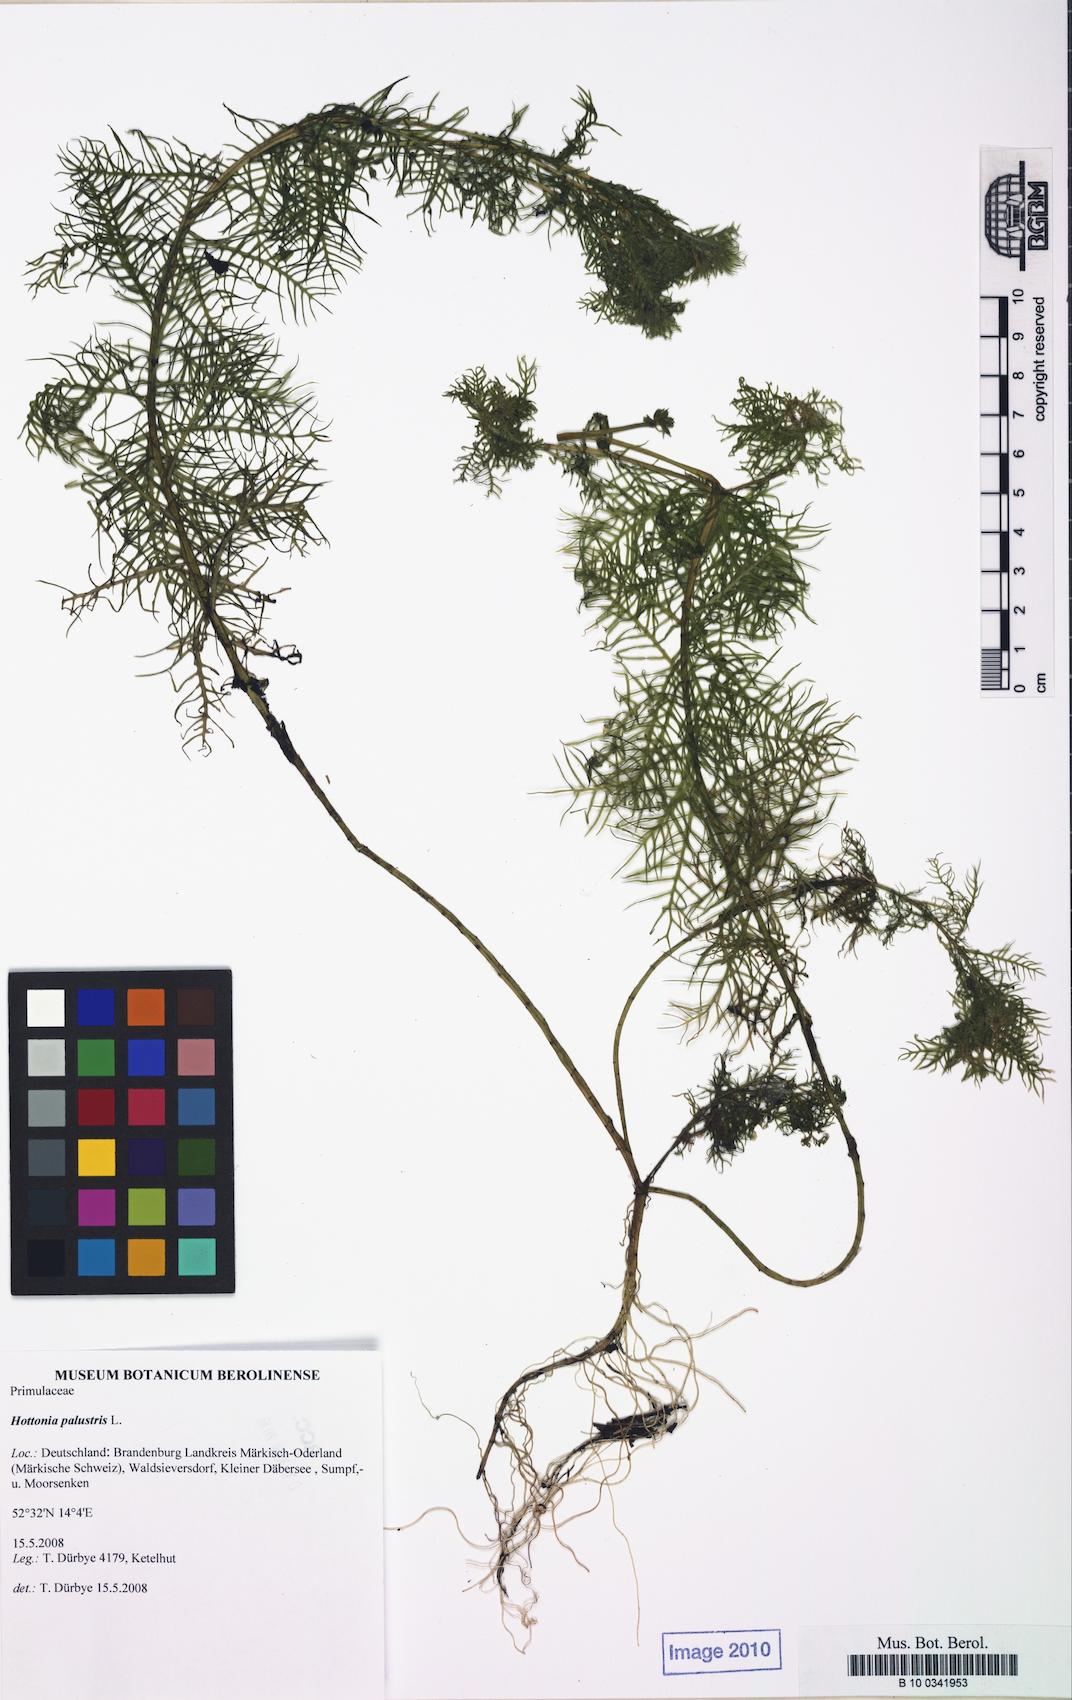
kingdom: Plantae
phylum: Tracheophyta
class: Magnoliopsida
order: Ericales
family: Primulaceae
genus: Hottonia
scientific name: Hottonia palustris
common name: Water-violet
